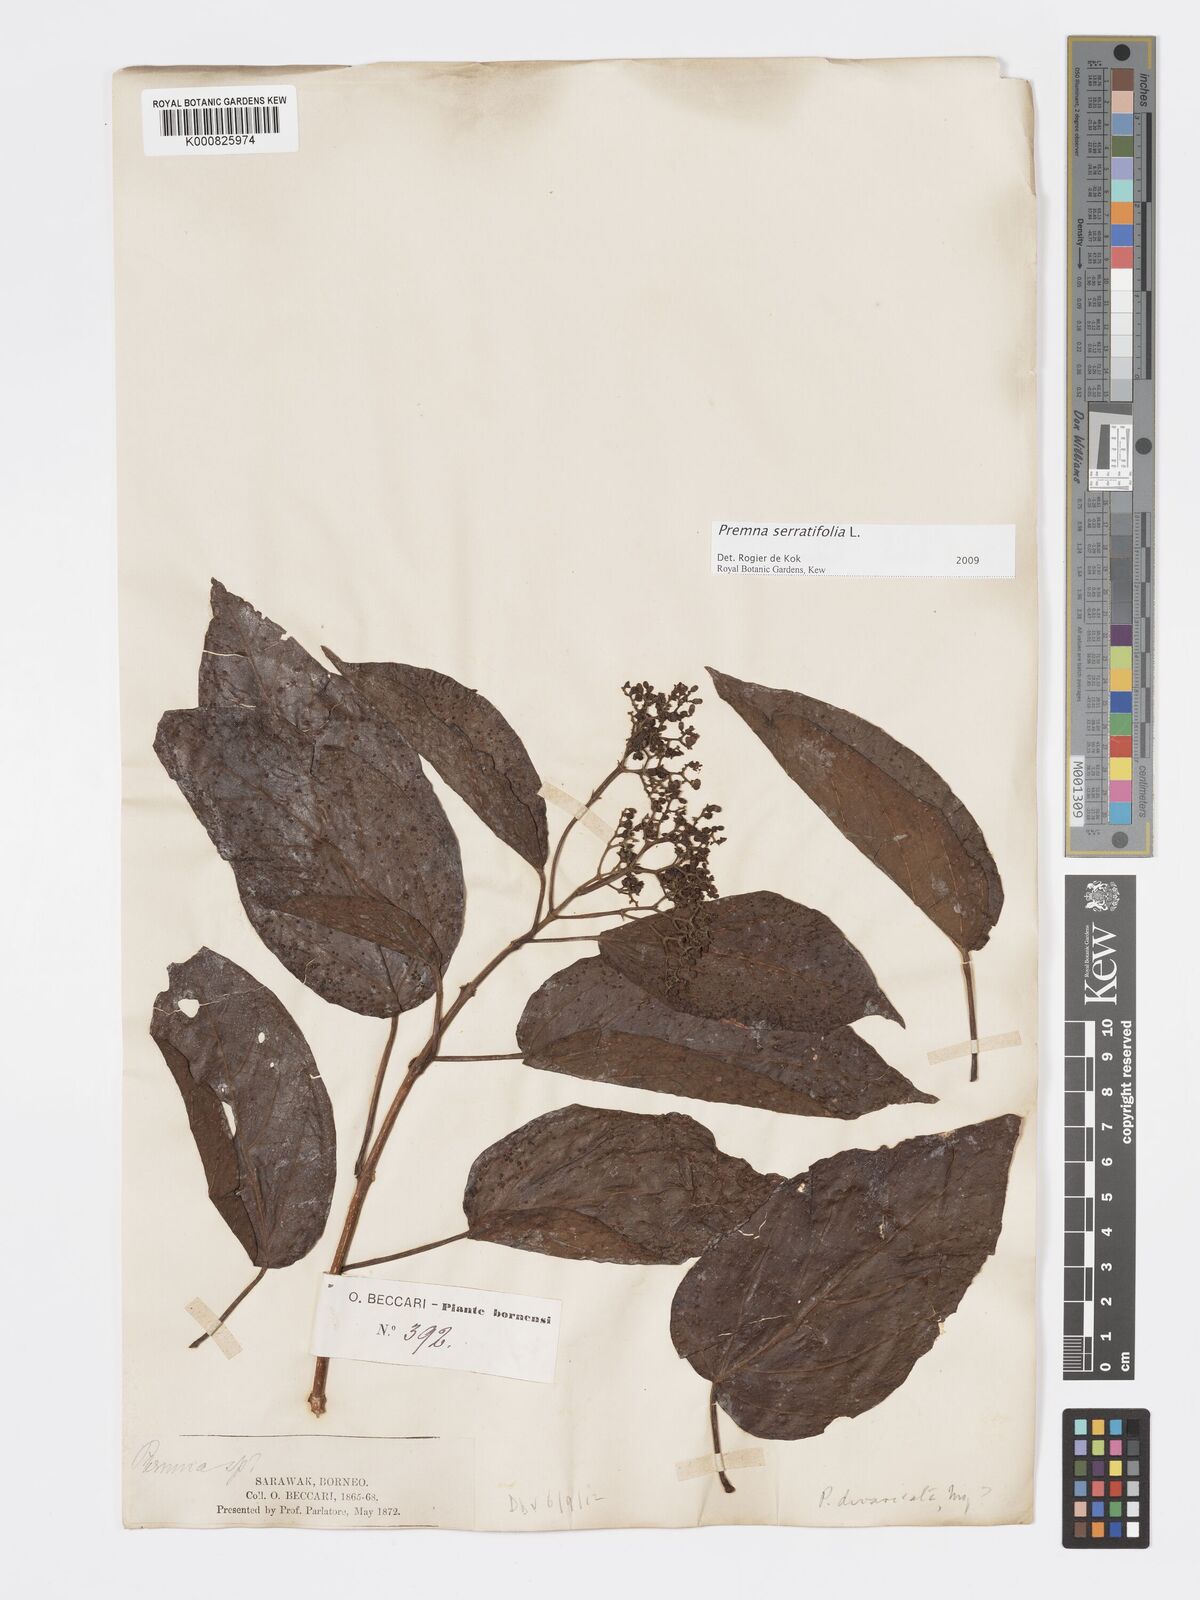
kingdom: Plantae
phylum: Tracheophyta
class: Magnoliopsida
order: Lamiales
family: Lamiaceae
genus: Premna
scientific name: Premna serratifolia
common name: Bastard guelder
